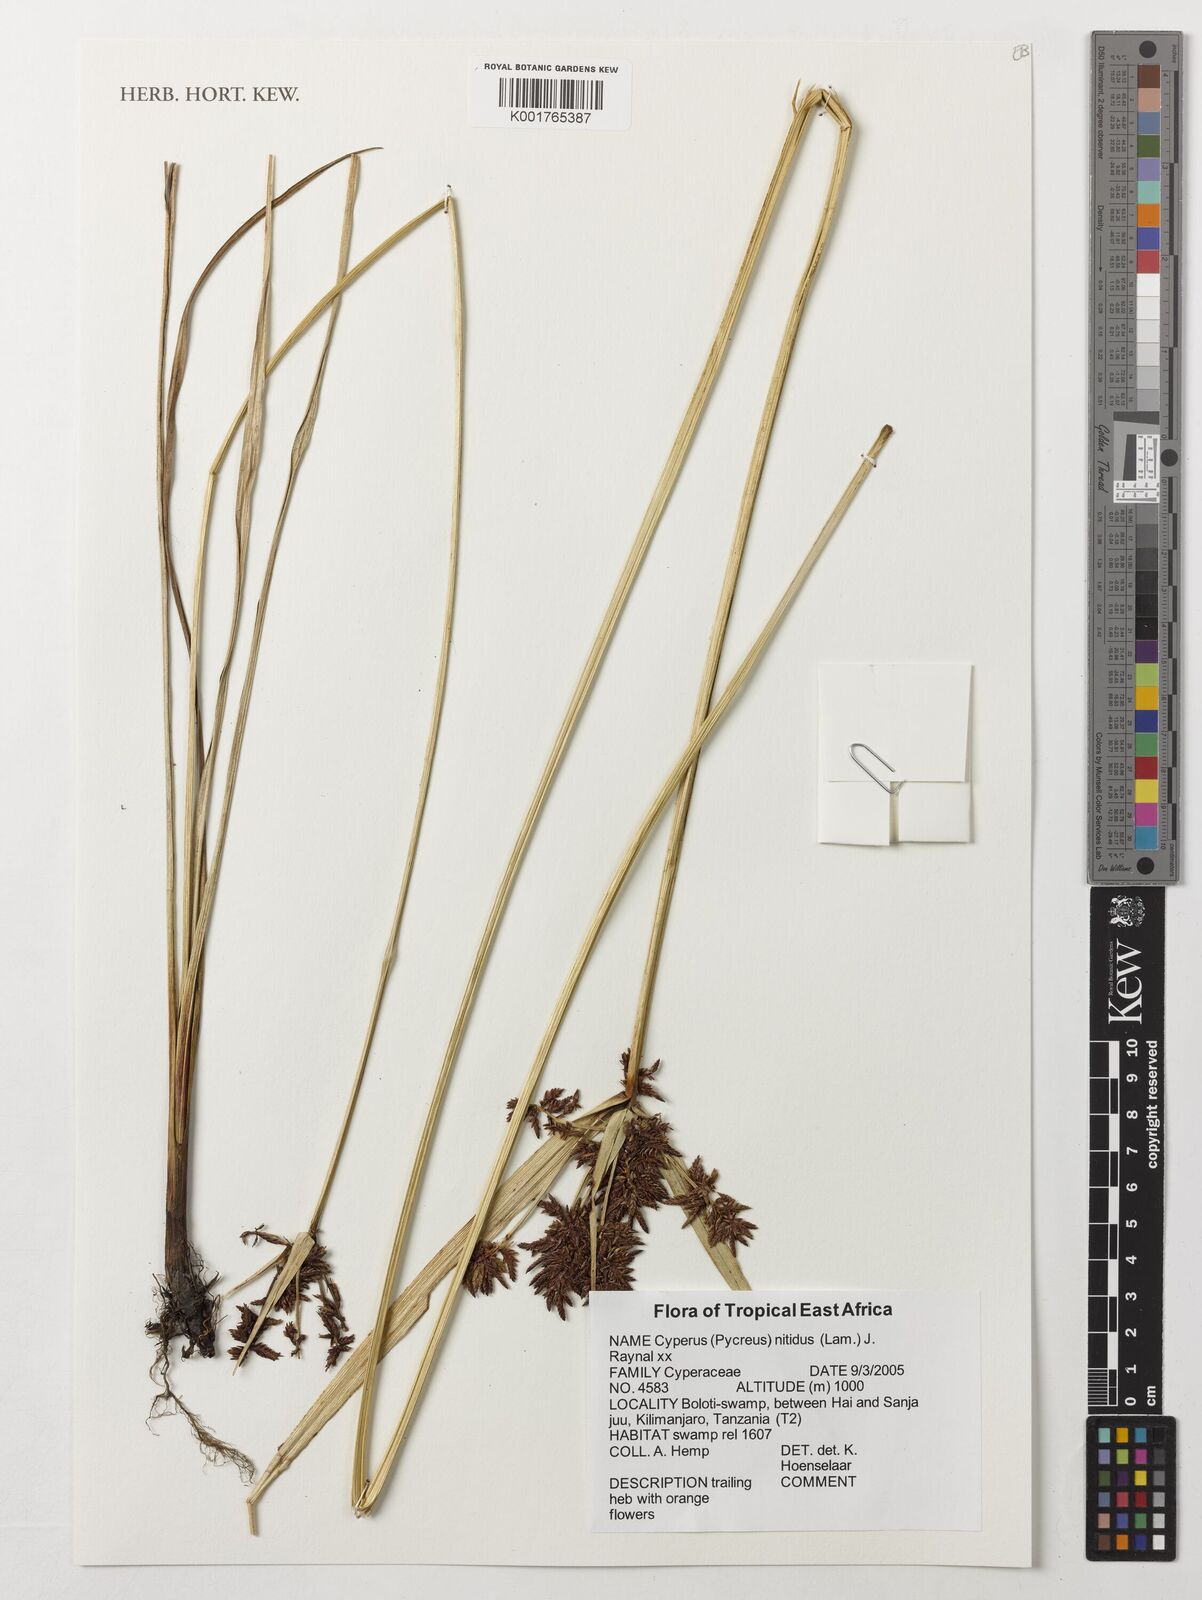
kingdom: Plantae
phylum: Tracheophyta
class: Liliopsida
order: Poales
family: Cyperaceae
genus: Cyperus
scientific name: Cyperus nitidus
